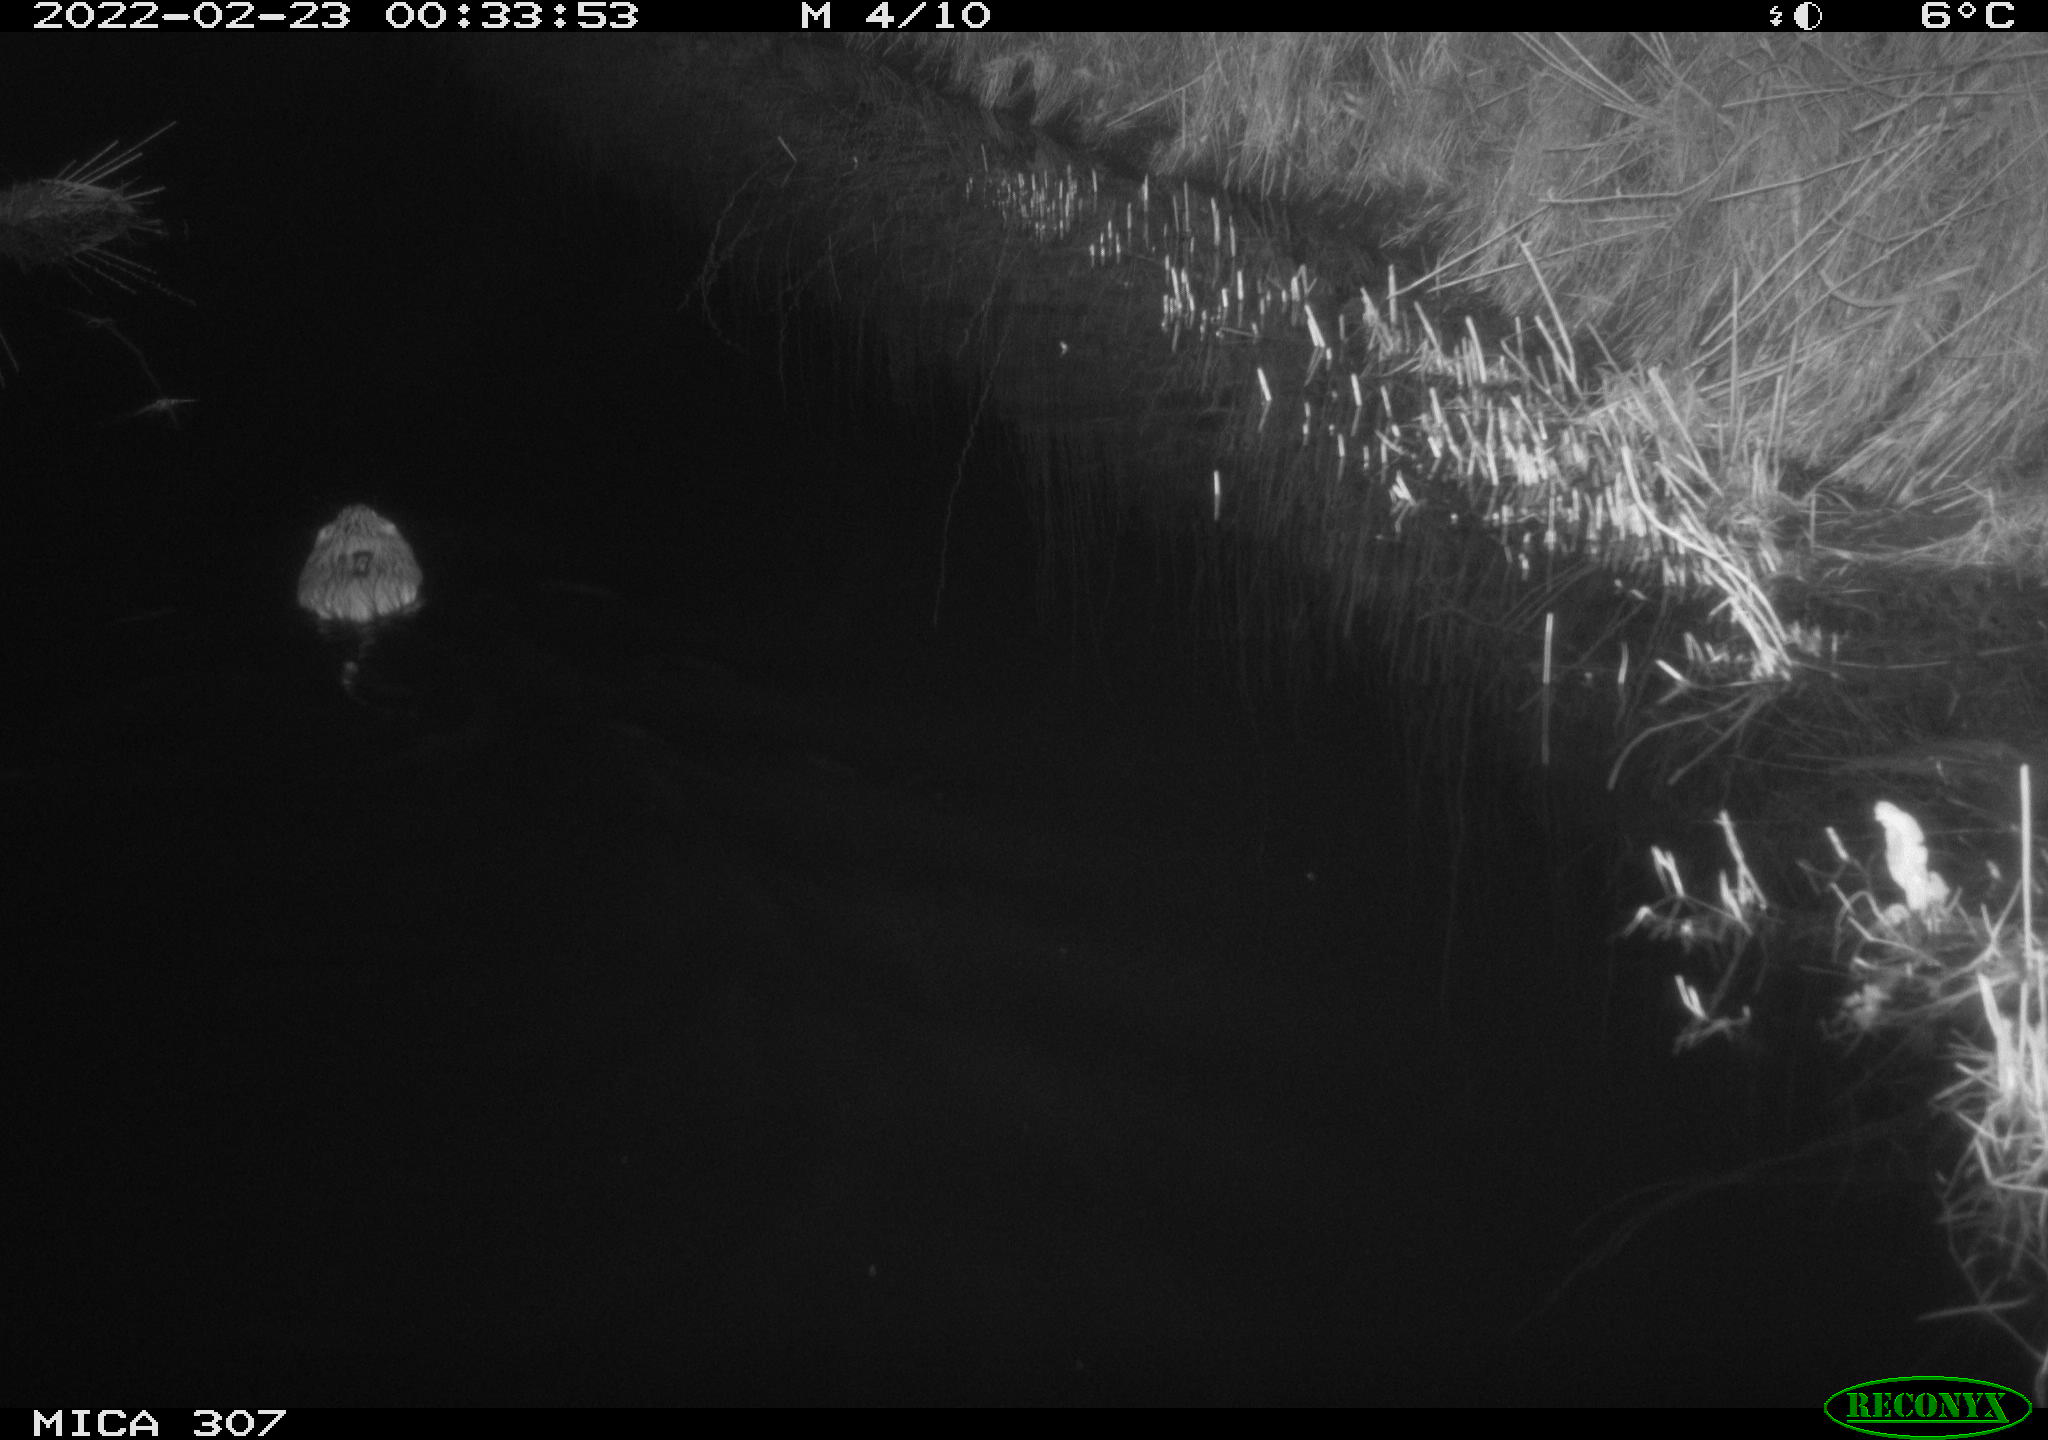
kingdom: Animalia
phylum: Chordata
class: Mammalia
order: Rodentia
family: Cricetidae
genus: Ondatra
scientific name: Ondatra zibethicus
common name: Muskrat
